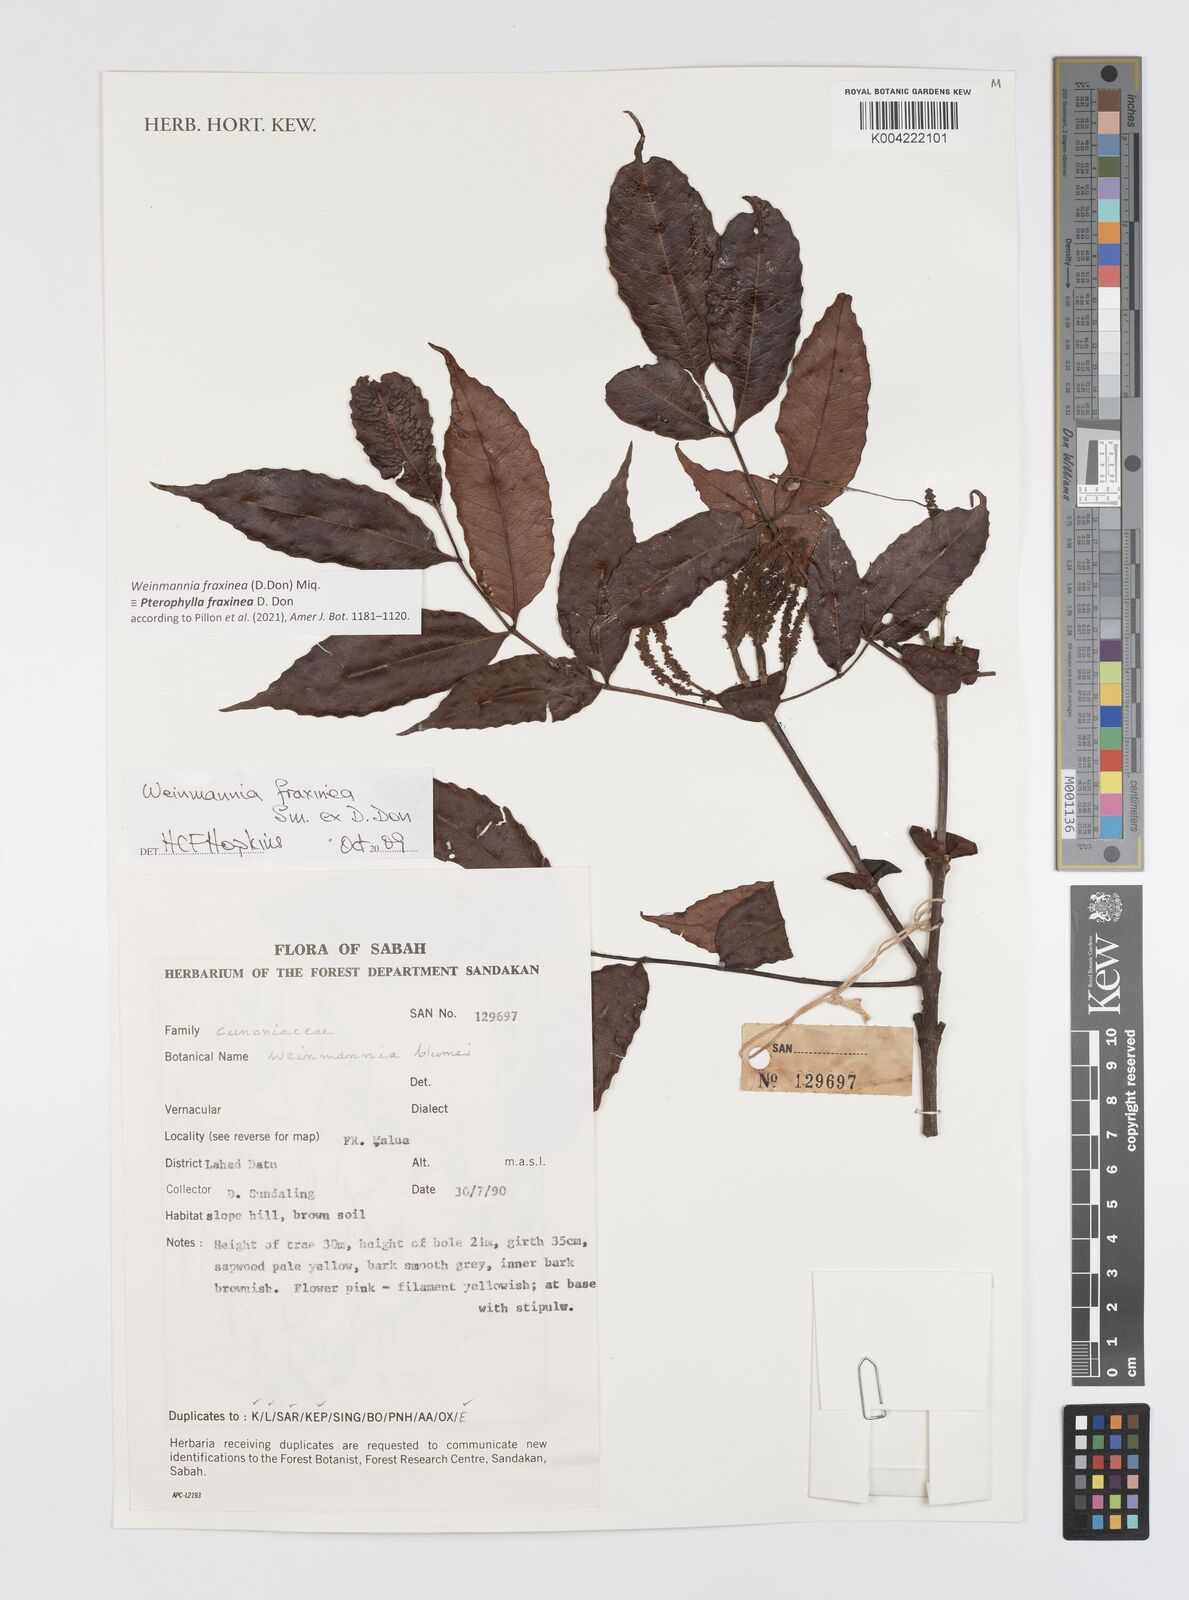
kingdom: Plantae
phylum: Tracheophyta
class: Magnoliopsida
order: Oxalidales
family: Cunoniaceae
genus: Pterophylla
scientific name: Pterophylla fraxinea
